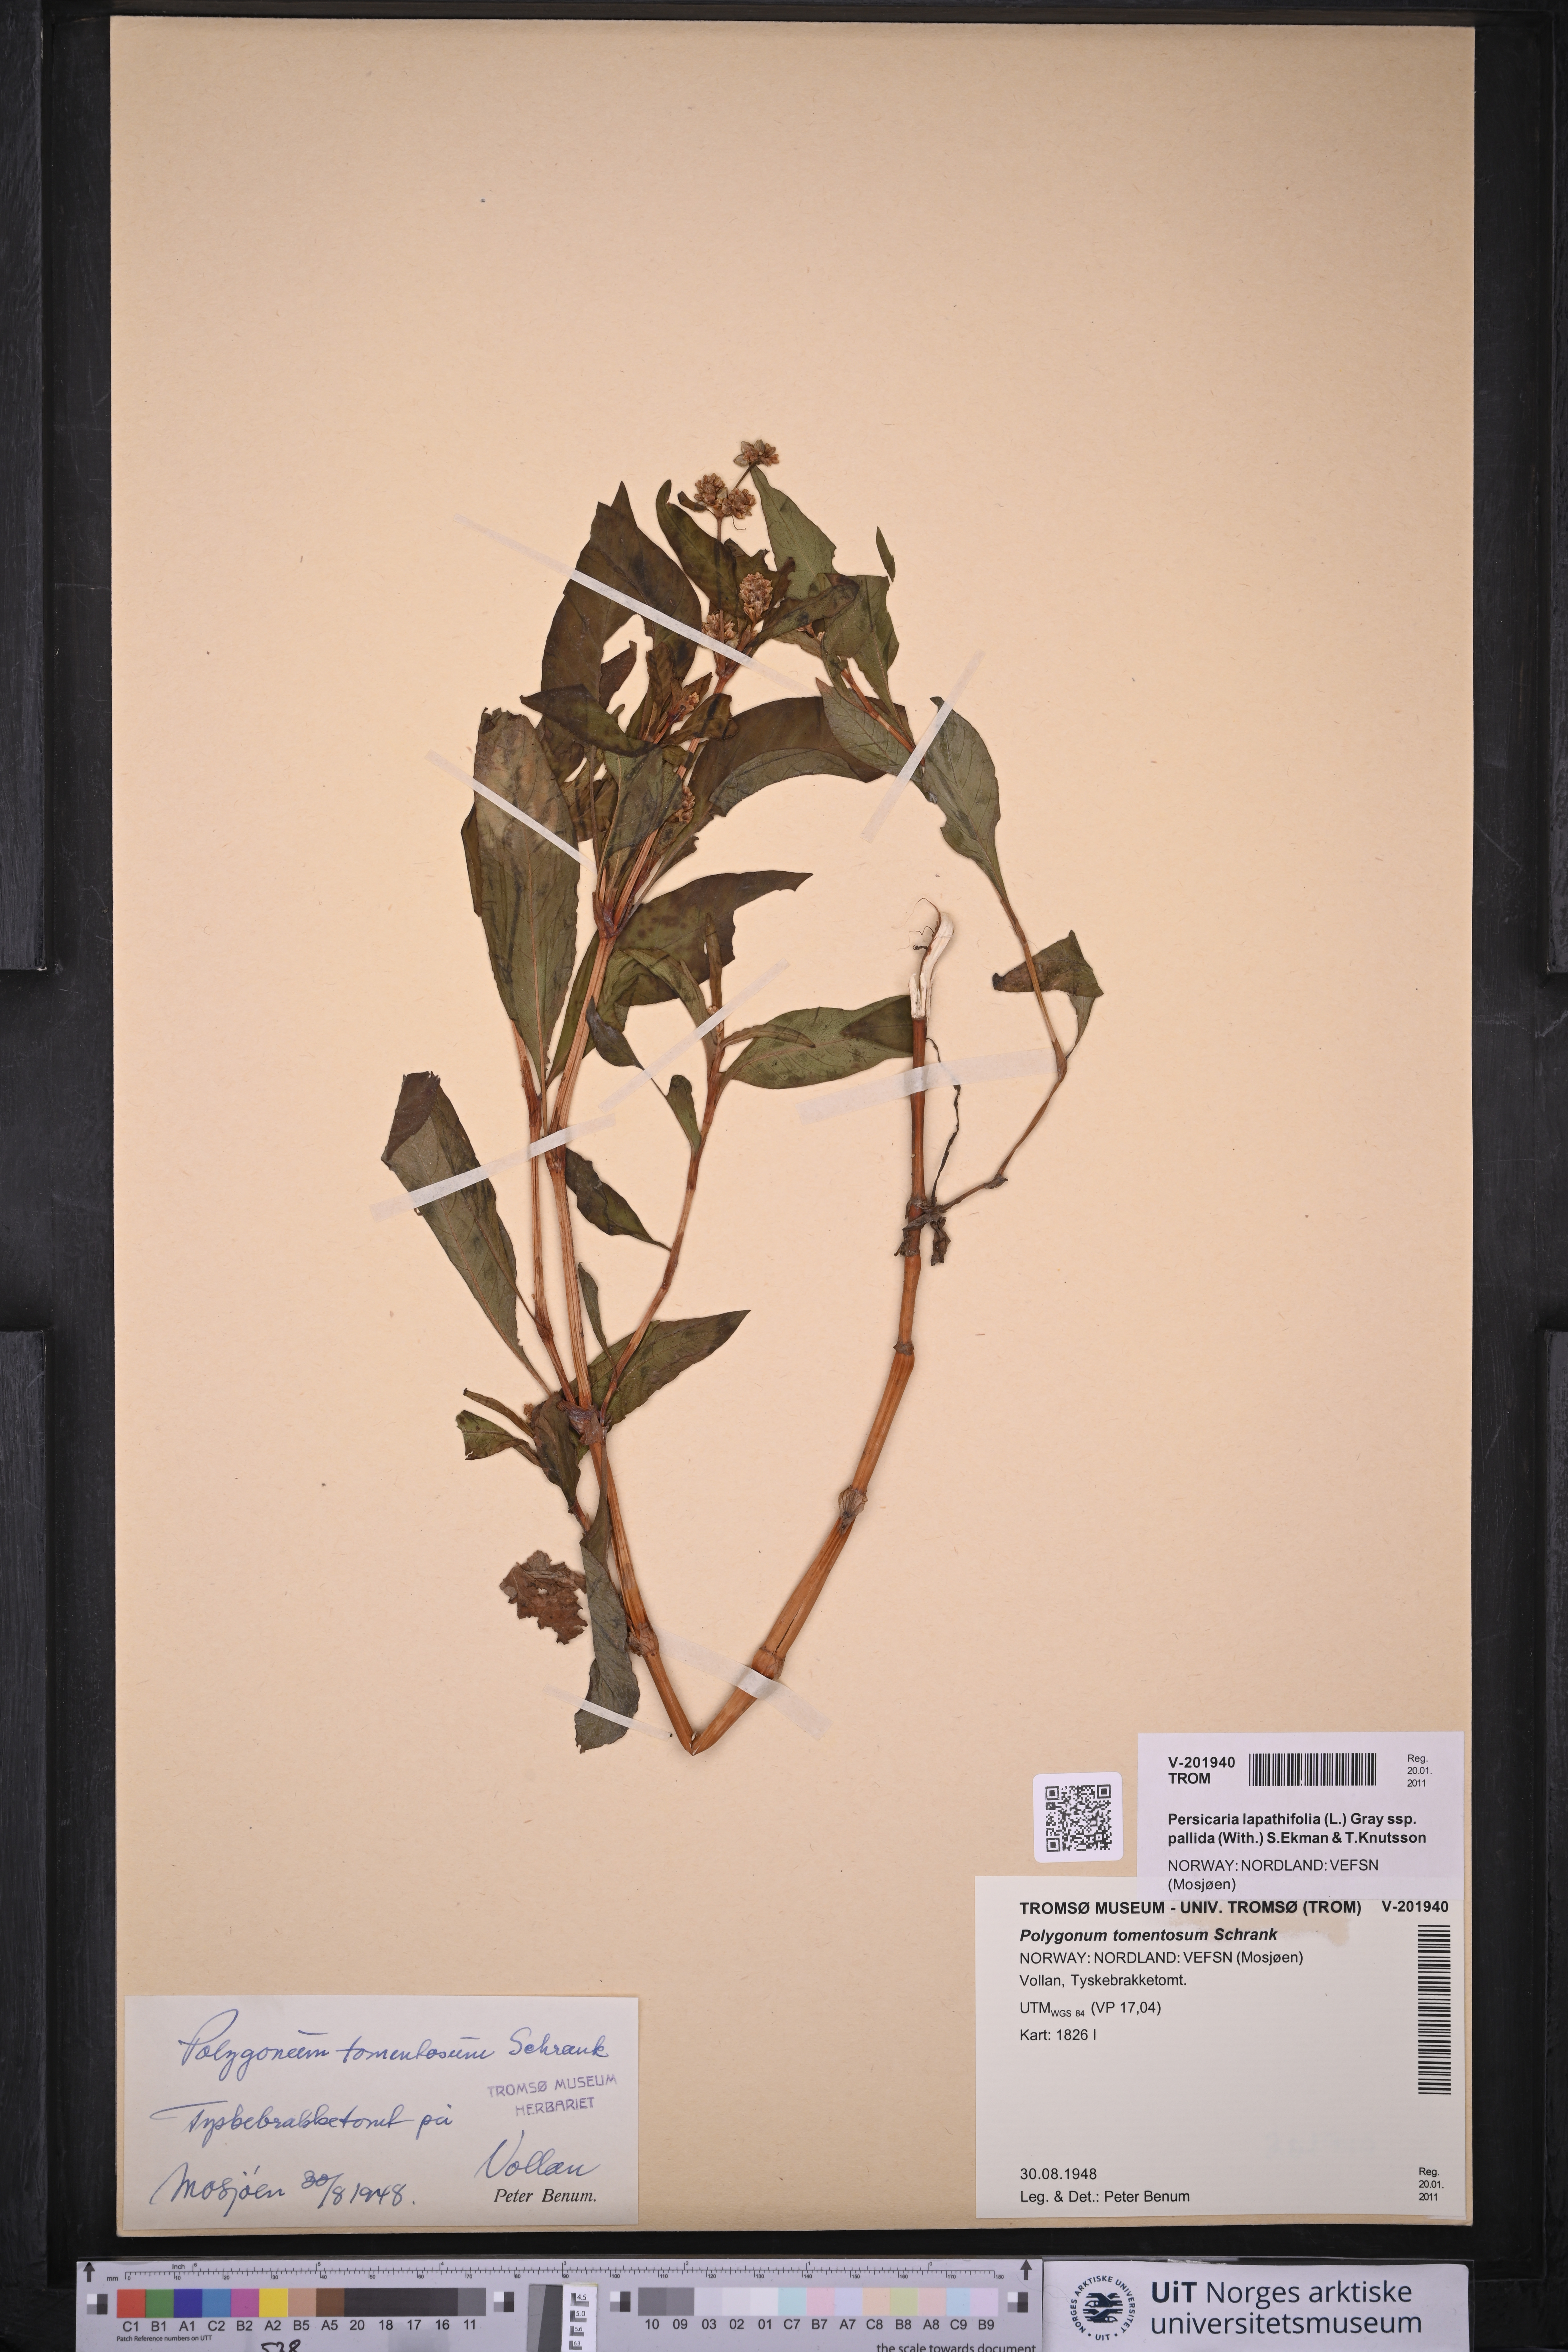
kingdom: Plantae
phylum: Tracheophyta
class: Magnoliopsida
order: Caryophyllales
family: Polygonaceae
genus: Persicaria
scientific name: Persicaria lapathifolia
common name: Curlytop knotweed
